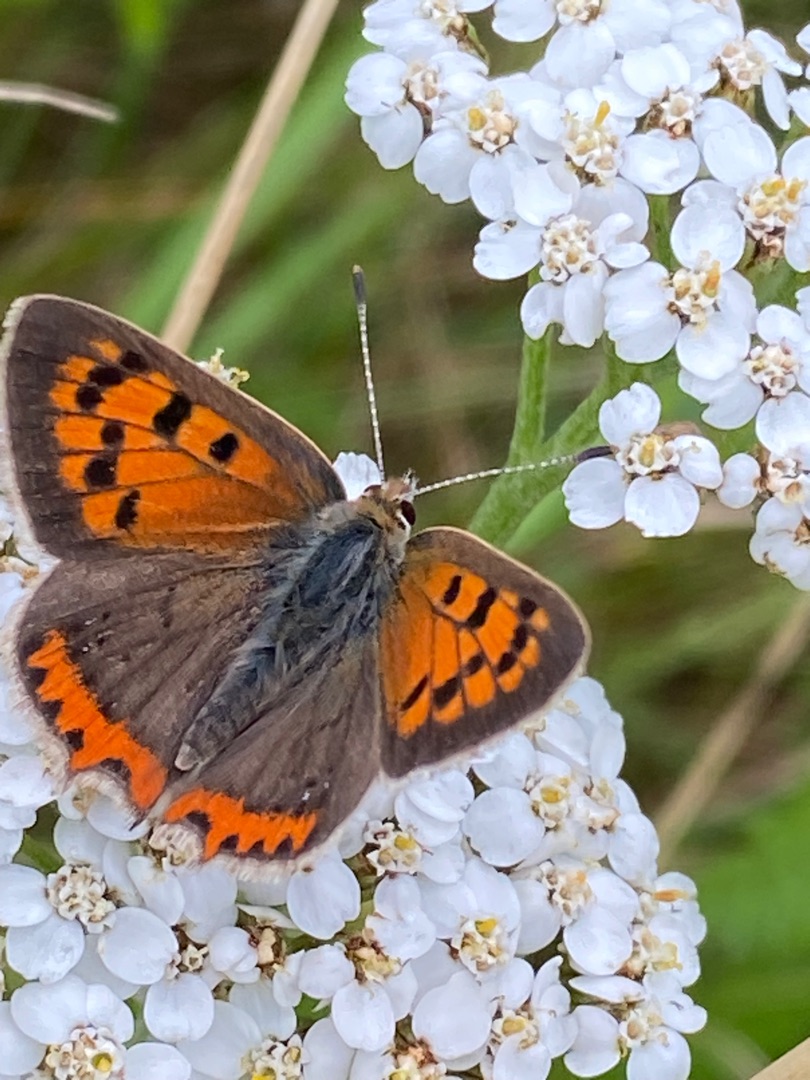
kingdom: Animalia
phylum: Arthropoda
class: Insecta
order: Lepidoptera
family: Lycaenidae
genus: Lycaena
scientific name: Lycaena phlaeas
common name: Lille ildfugl
